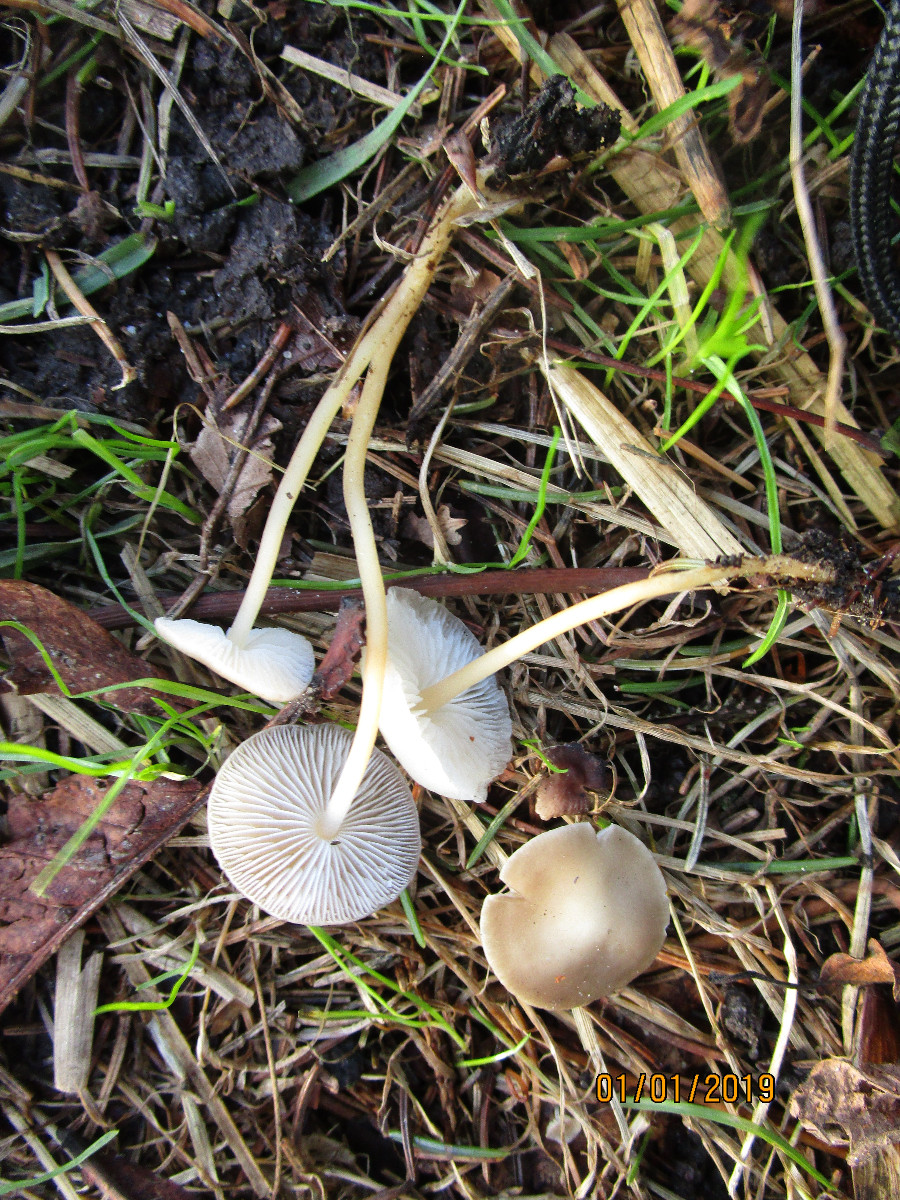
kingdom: Fungi
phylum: Basidiomycota
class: Agaricomycetes
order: Agaricales
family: Physalacriaceae
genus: Strobilurus
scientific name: Strobilurus esculentus
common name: gran-koglehat
